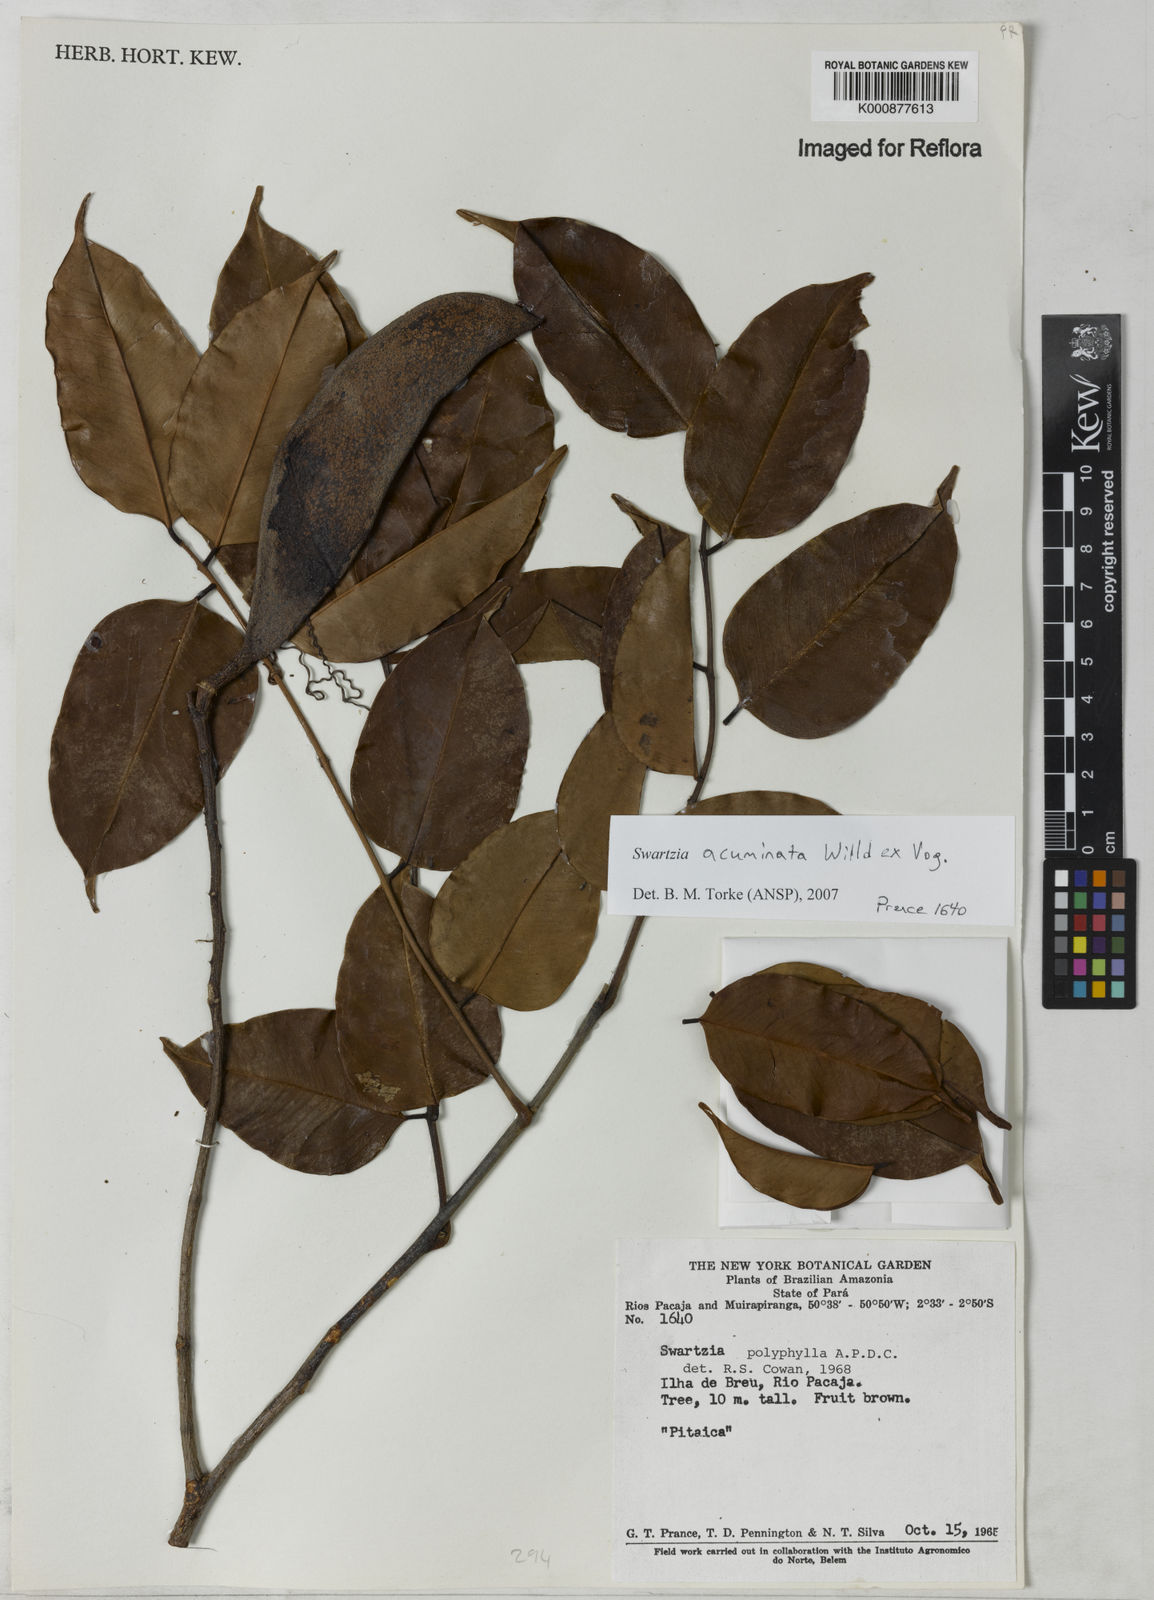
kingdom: Plantae
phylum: Tracheophyta
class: Magnoliopsida
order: Fabales
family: Fabaceae
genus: Swartzia
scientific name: Swartzia acuminata
